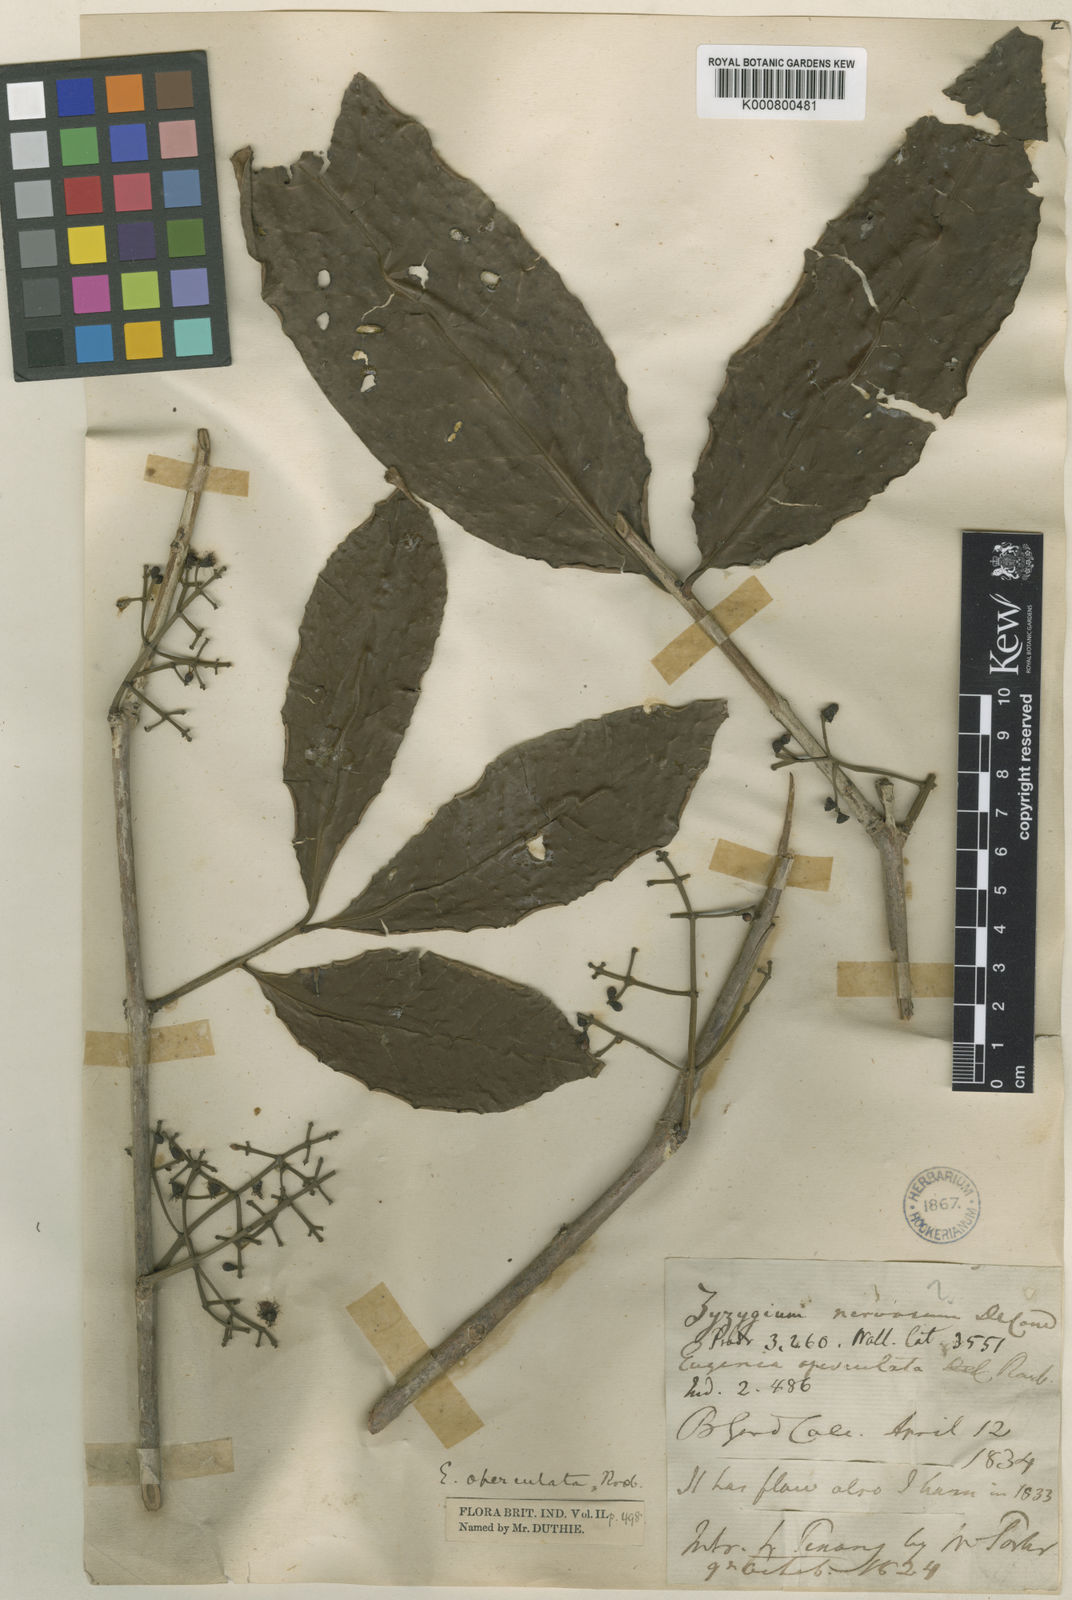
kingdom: Plantae
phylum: Tracheophyta
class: Magnoliopsida
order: Myrtales
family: Myrtaceae
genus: Syzygium
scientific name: Syzygium nervosum
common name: Daly river satinash
